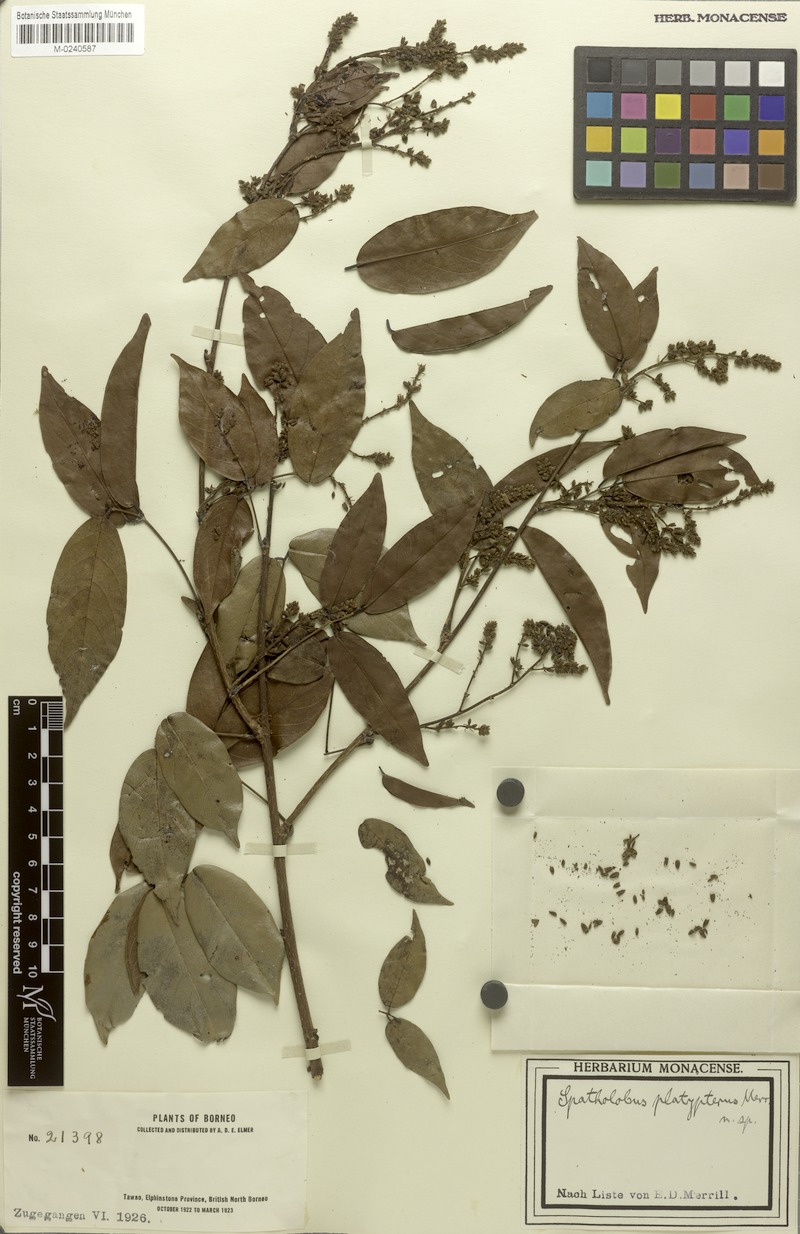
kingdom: Plantae
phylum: Tracheophyta
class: Magnoliopsida
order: Fabales
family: Fabaceae
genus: Spatholobus
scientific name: Spatholobus macropterus
